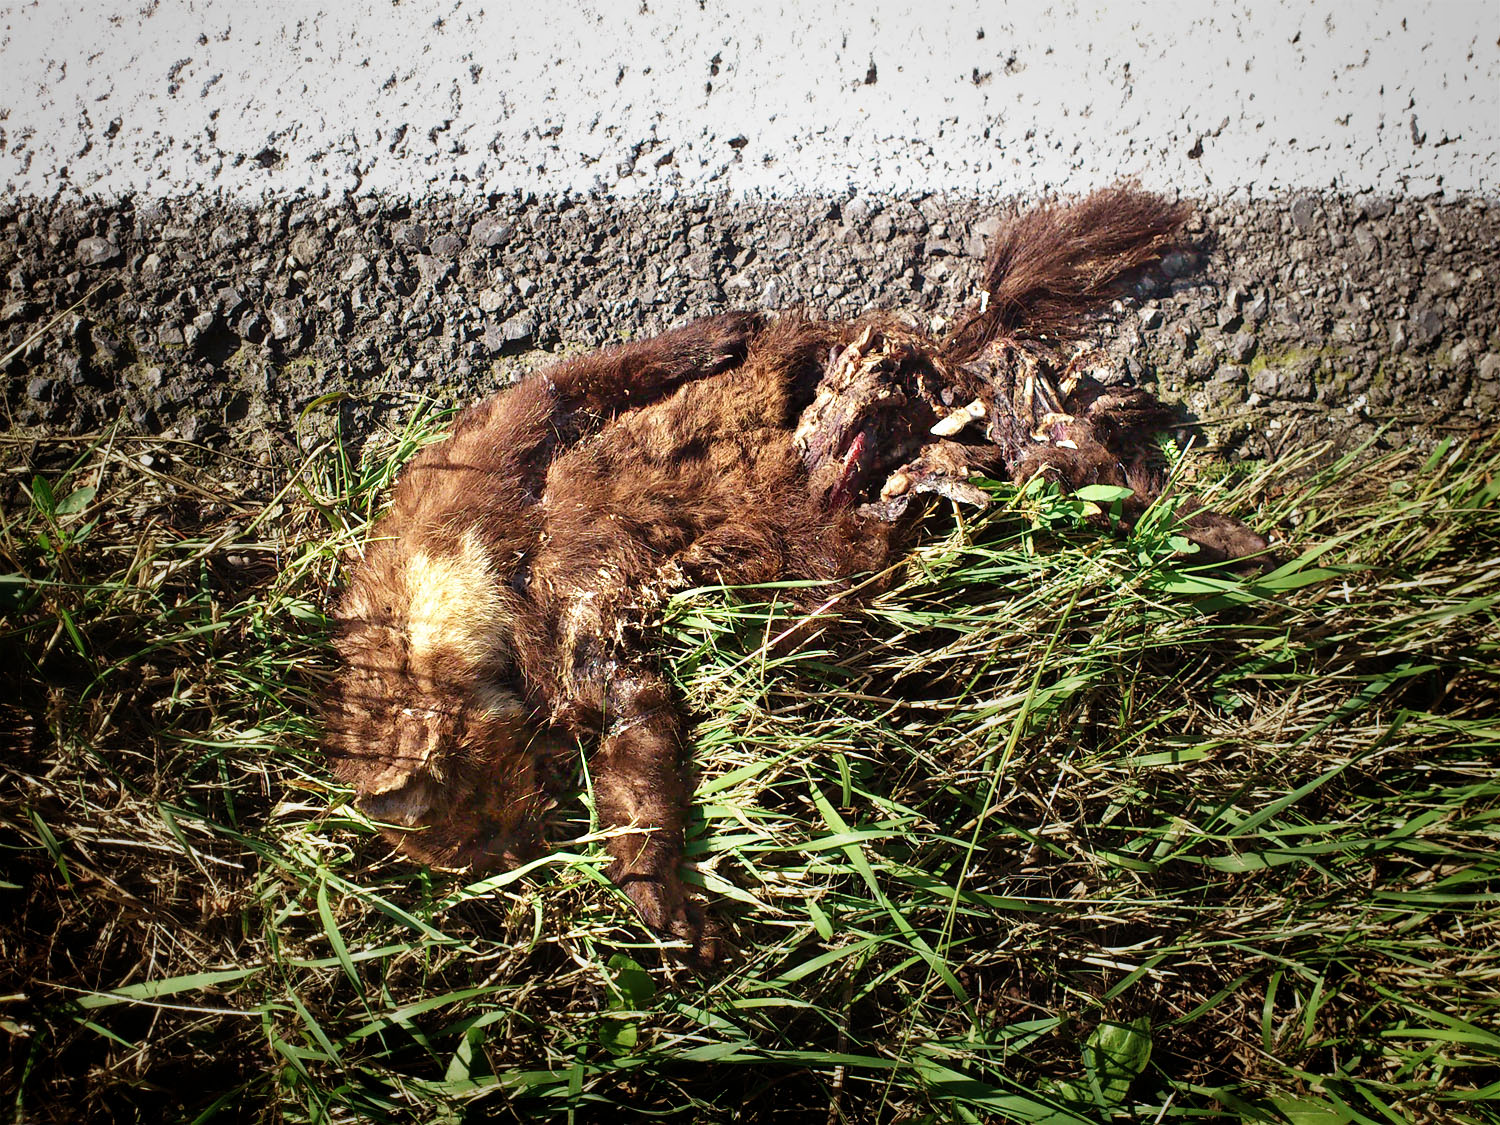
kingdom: Animalia
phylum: Chordata
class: Mammalia
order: Carnivora
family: Mustelidae
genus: Martes
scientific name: Martes martes
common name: European pine marten
